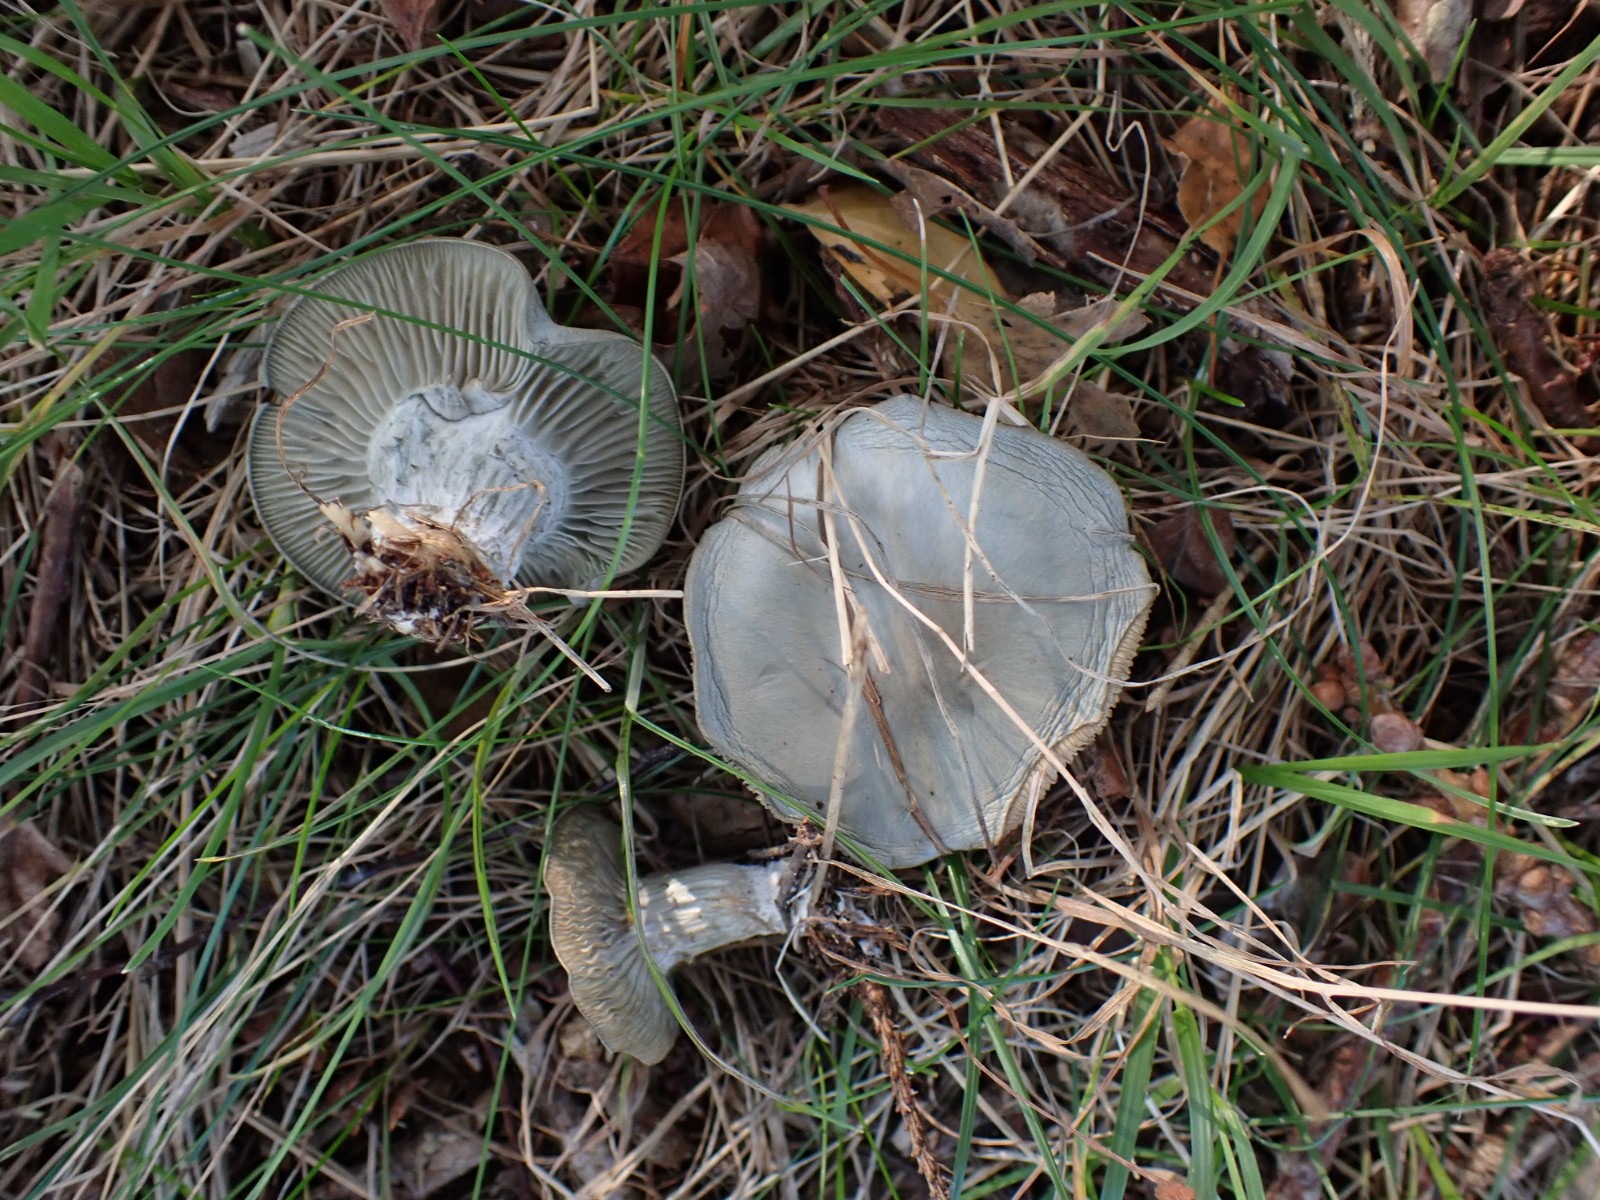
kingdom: Fungi
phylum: Basidiomycota
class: Agaricomycetes
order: Agaricales
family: Tricholomataceae
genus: Clitocybe
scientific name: Clitocybe odora
